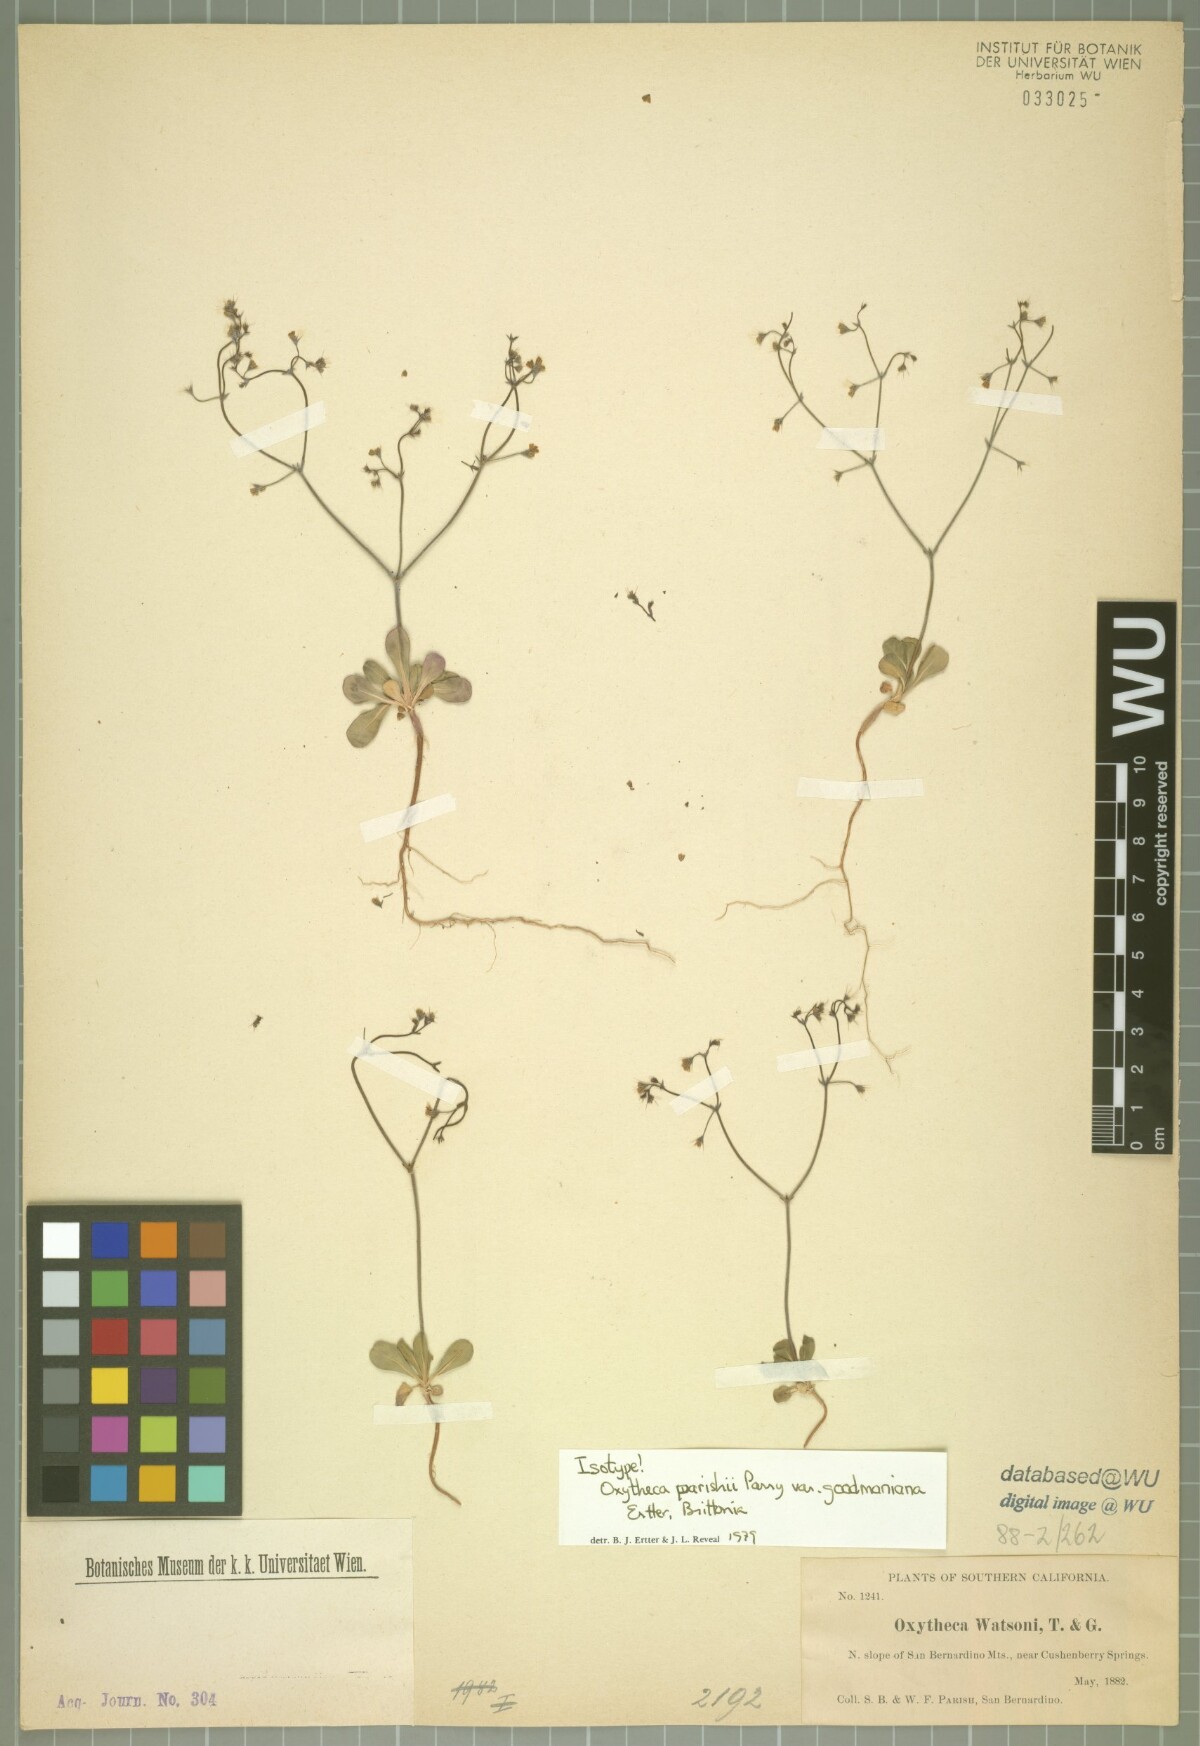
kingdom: Plantae
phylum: Tracheophyta
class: Magnoliopsida
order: Caryophyllales
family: Polygonaceae
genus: Acanthoscyphus
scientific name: Acanthoscyphus parishii
